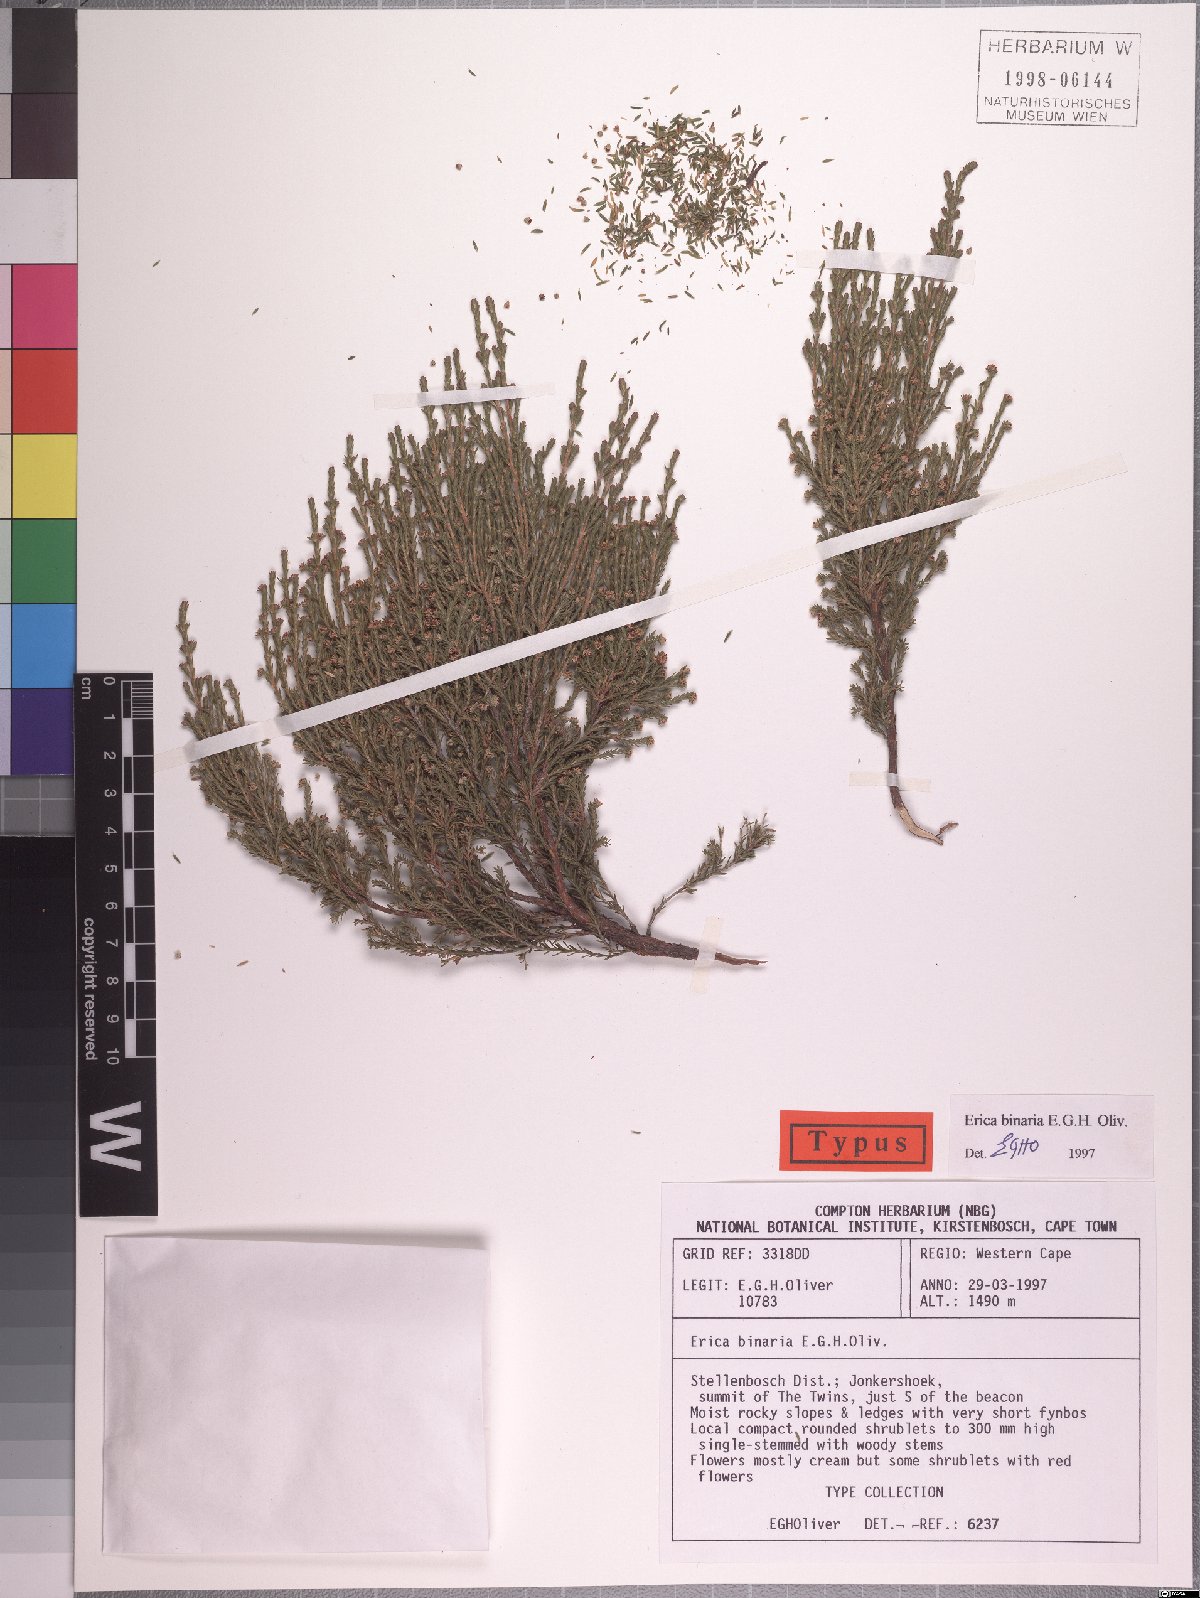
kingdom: Plantae
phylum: Tracheophyta
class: Magnoliopsida
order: Ericales
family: Ericaceae
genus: Erica
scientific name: Erica binaria
